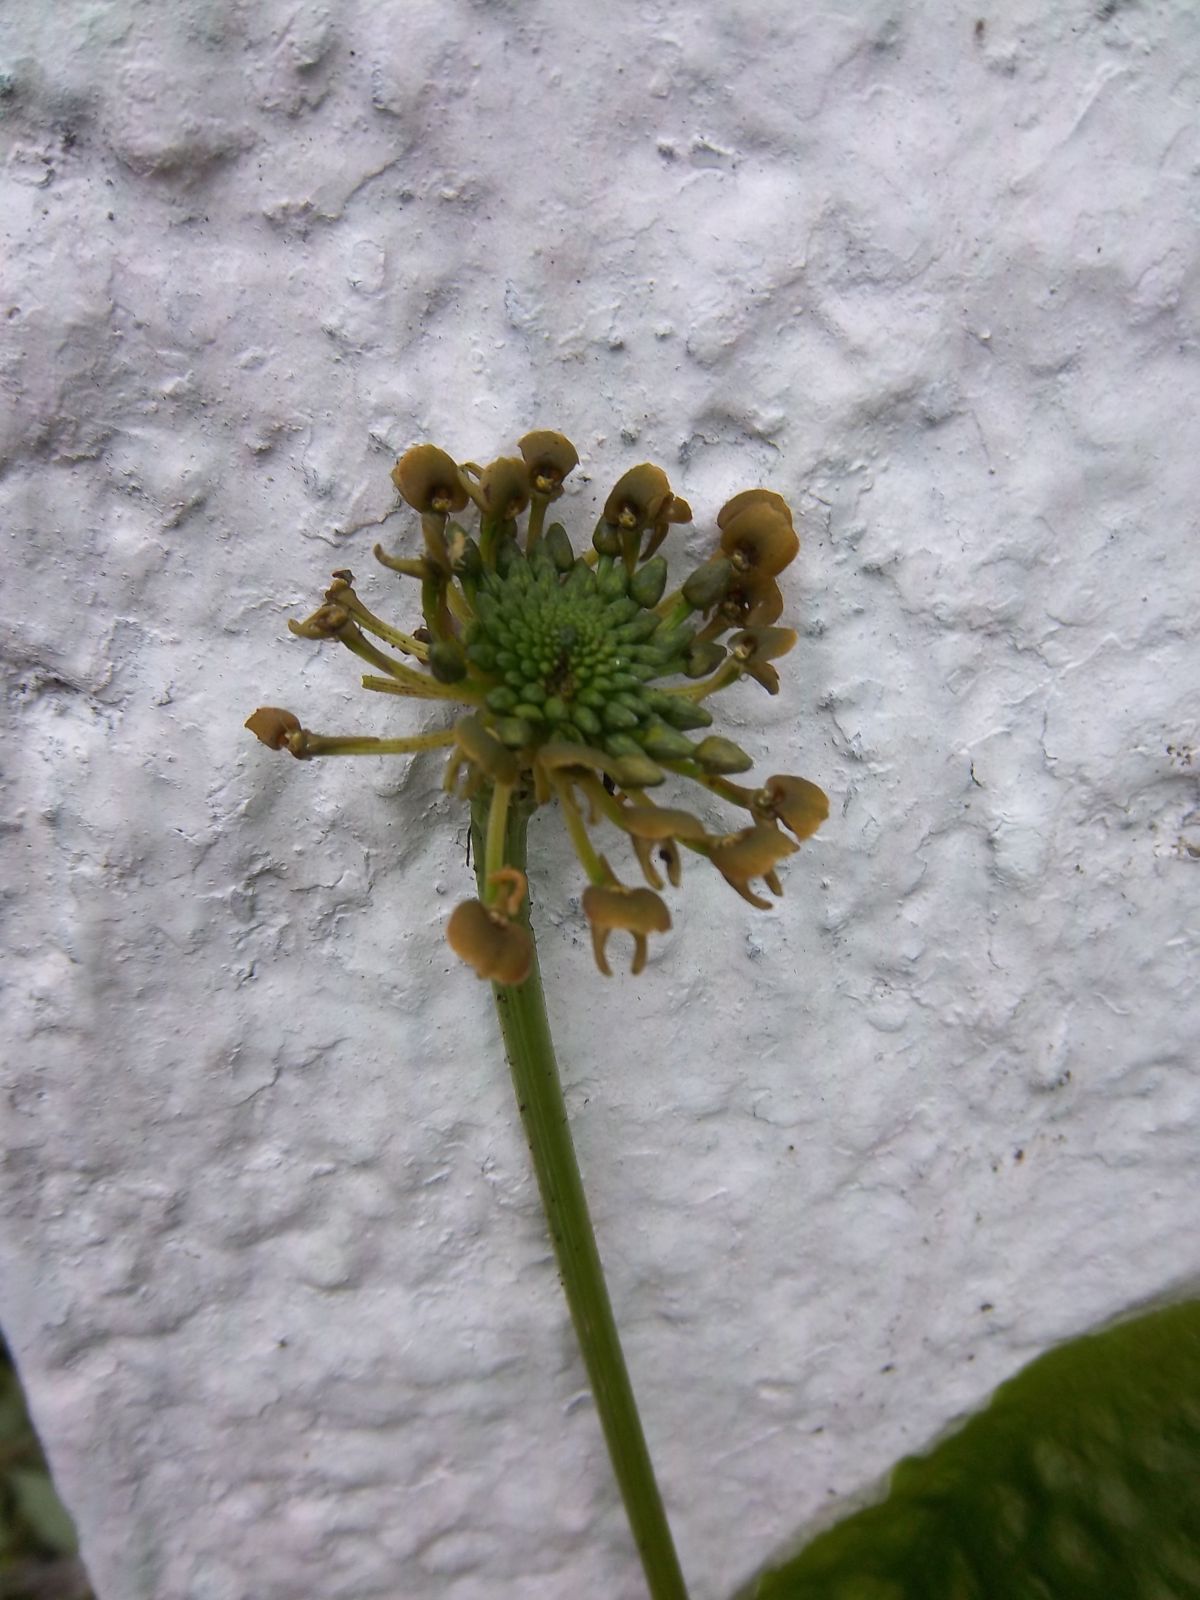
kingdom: Plantae
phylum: Tracheophyta
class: Liliopsida
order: Asparagales
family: Orchidaceae
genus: Malaxis
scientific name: Malaxis
